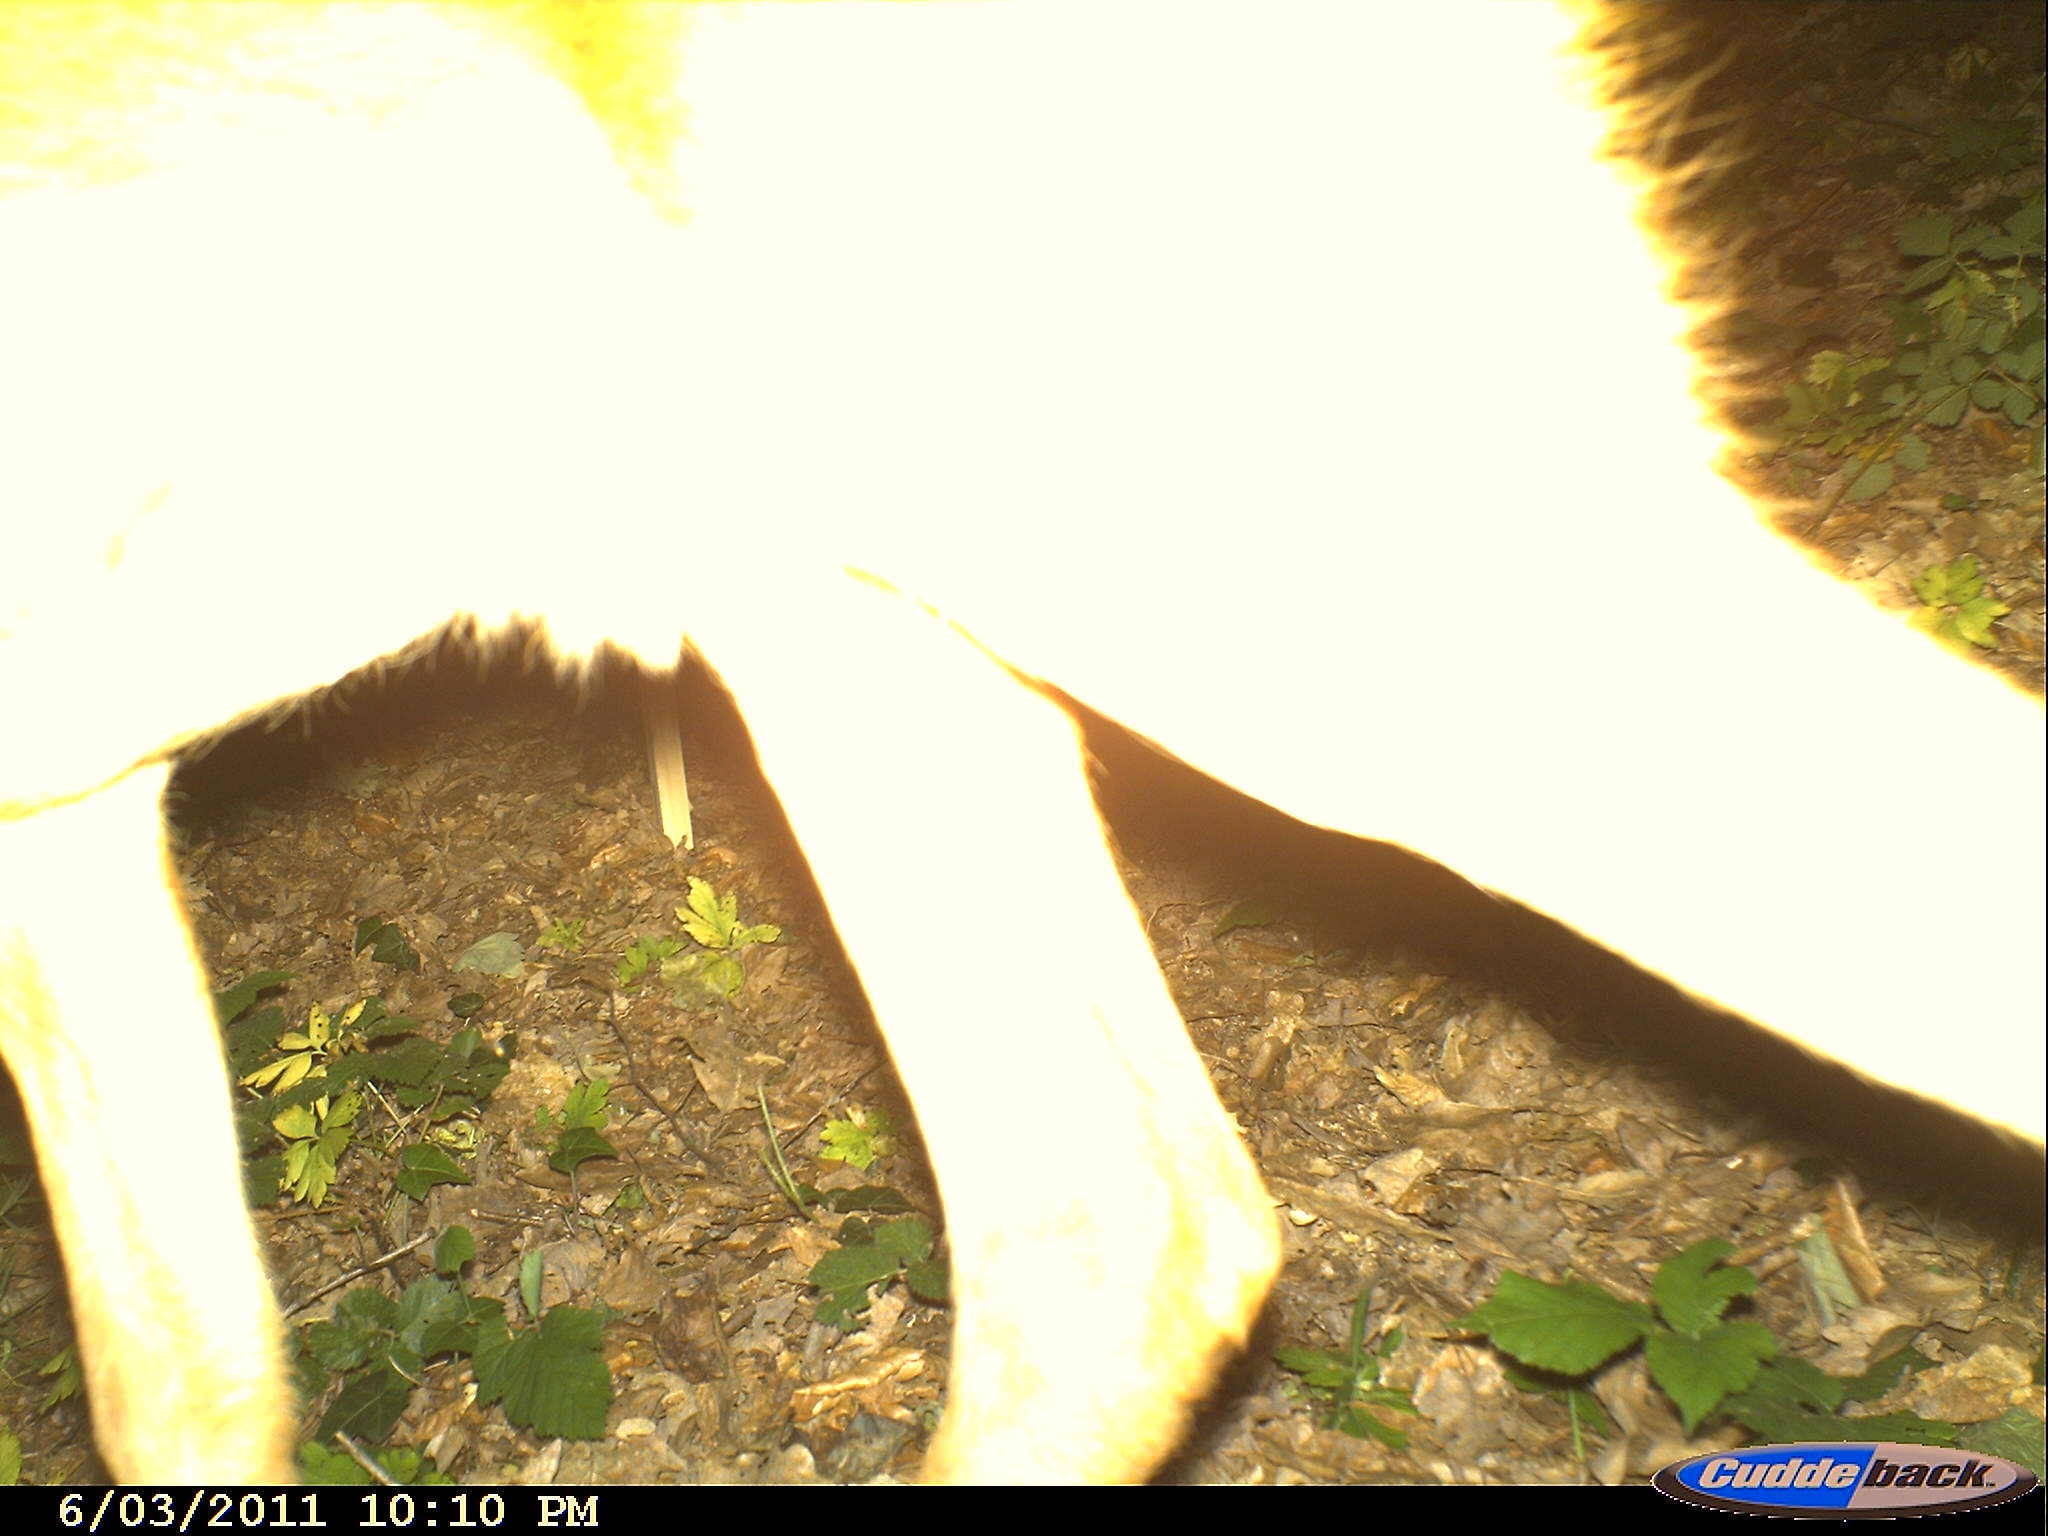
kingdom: Animalia
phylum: Chordata
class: Mammalia
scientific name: Mammalia
